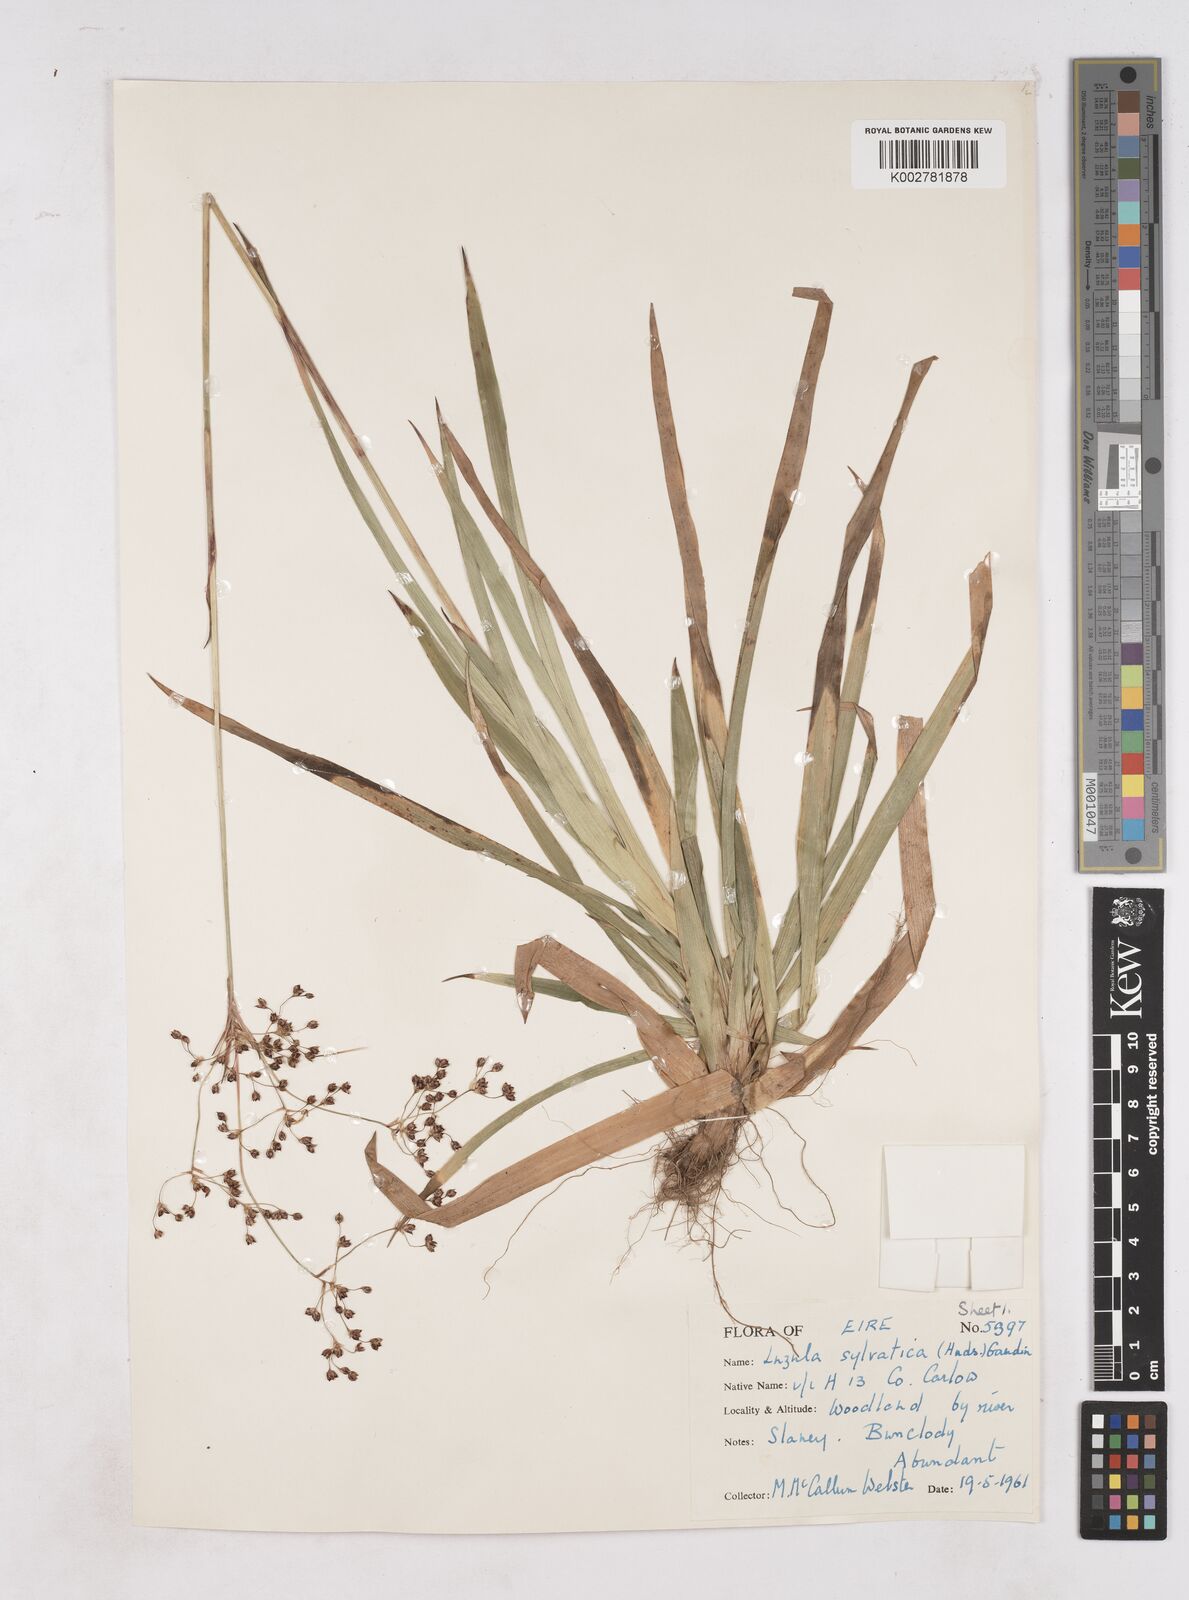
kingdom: Plantae
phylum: Tracheophyta
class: Liliopsida
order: Poales
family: Juncaceae
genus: Luzula
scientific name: Luzula sylvatica
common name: Great wood-rush
